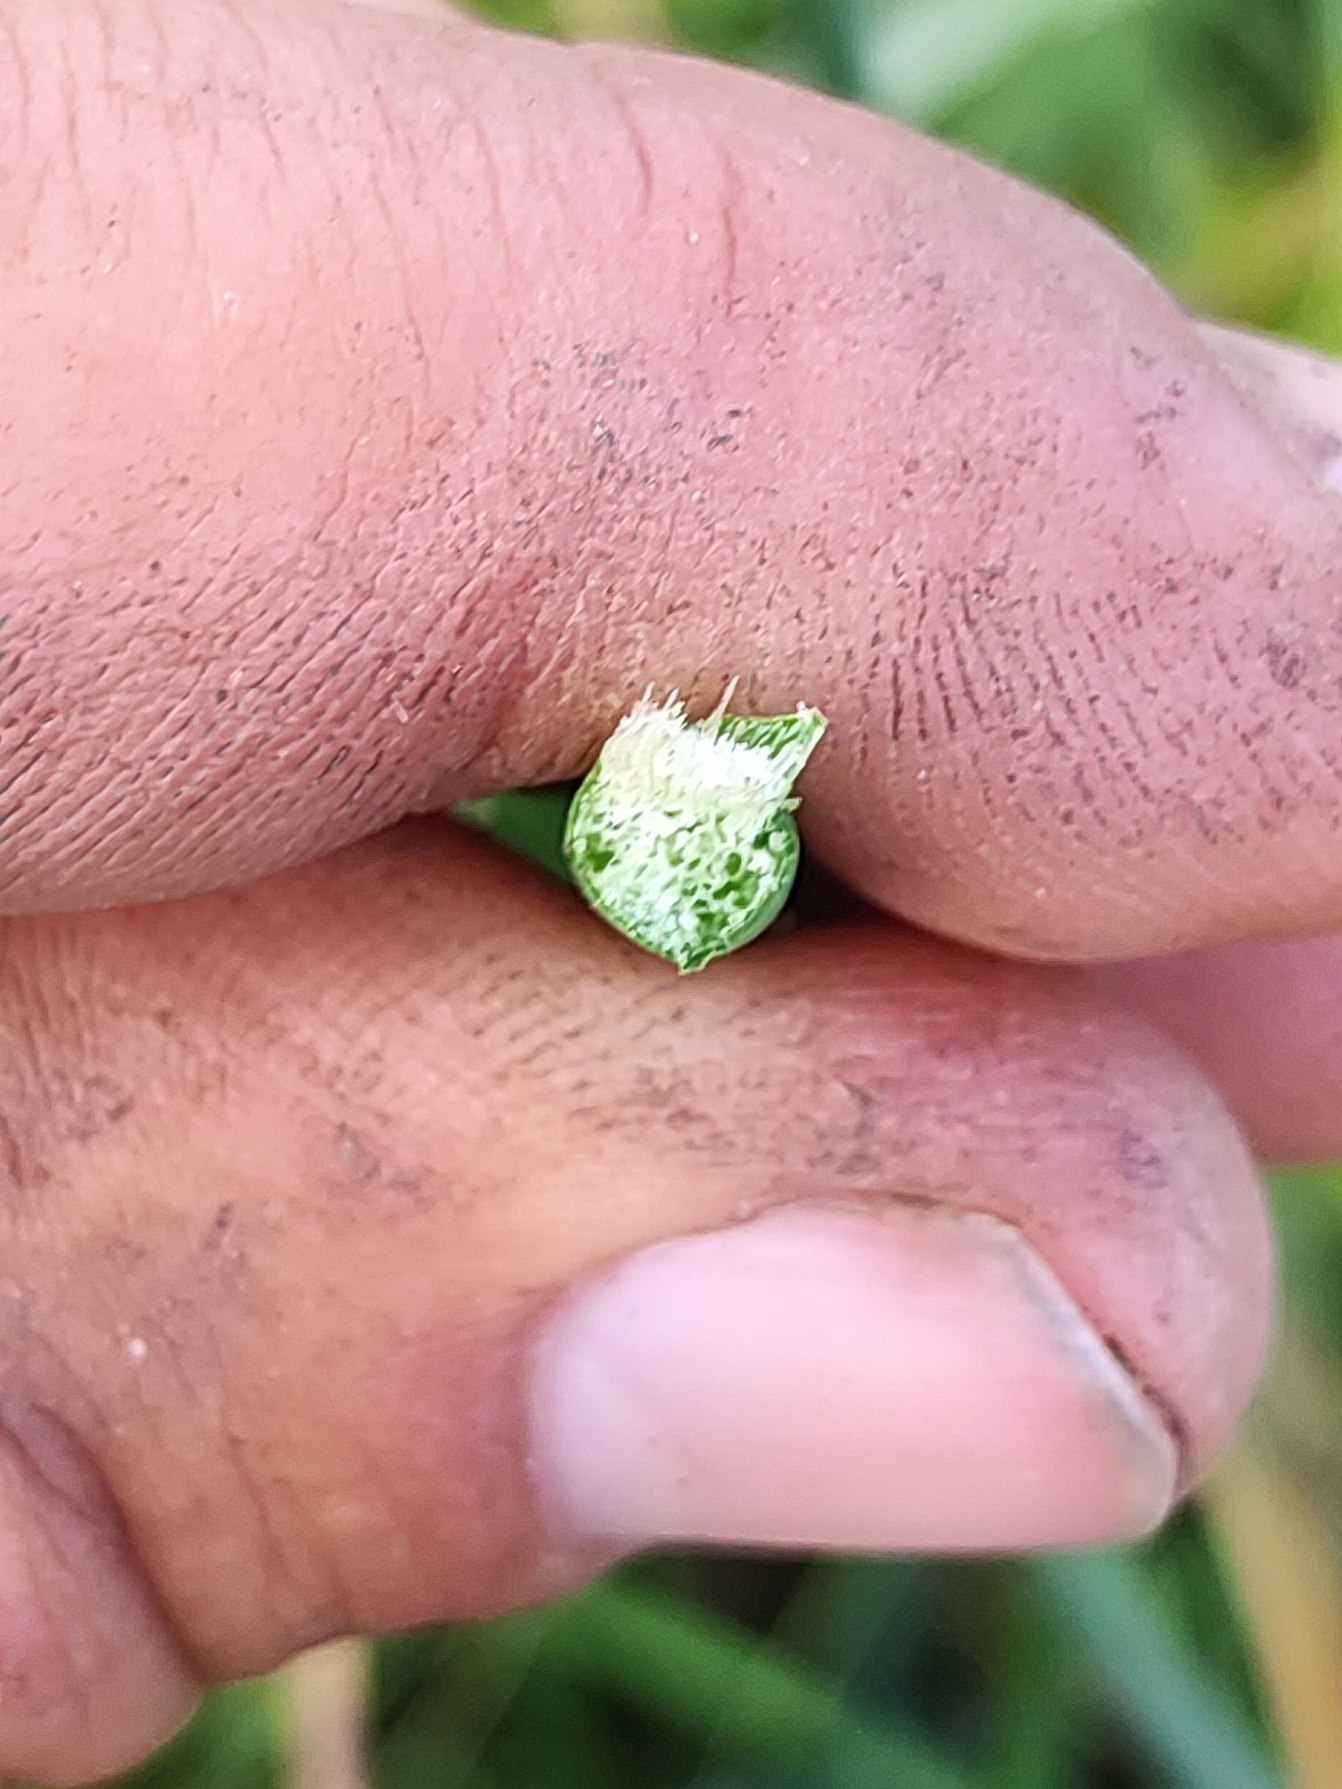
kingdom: Plantae
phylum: Tracheophyta
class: Liliopsida
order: Poales
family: Cyperaceae
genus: Schoenoplectus
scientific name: Schoenoplectus tabernaemontani
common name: Blågrøn kogleaks
